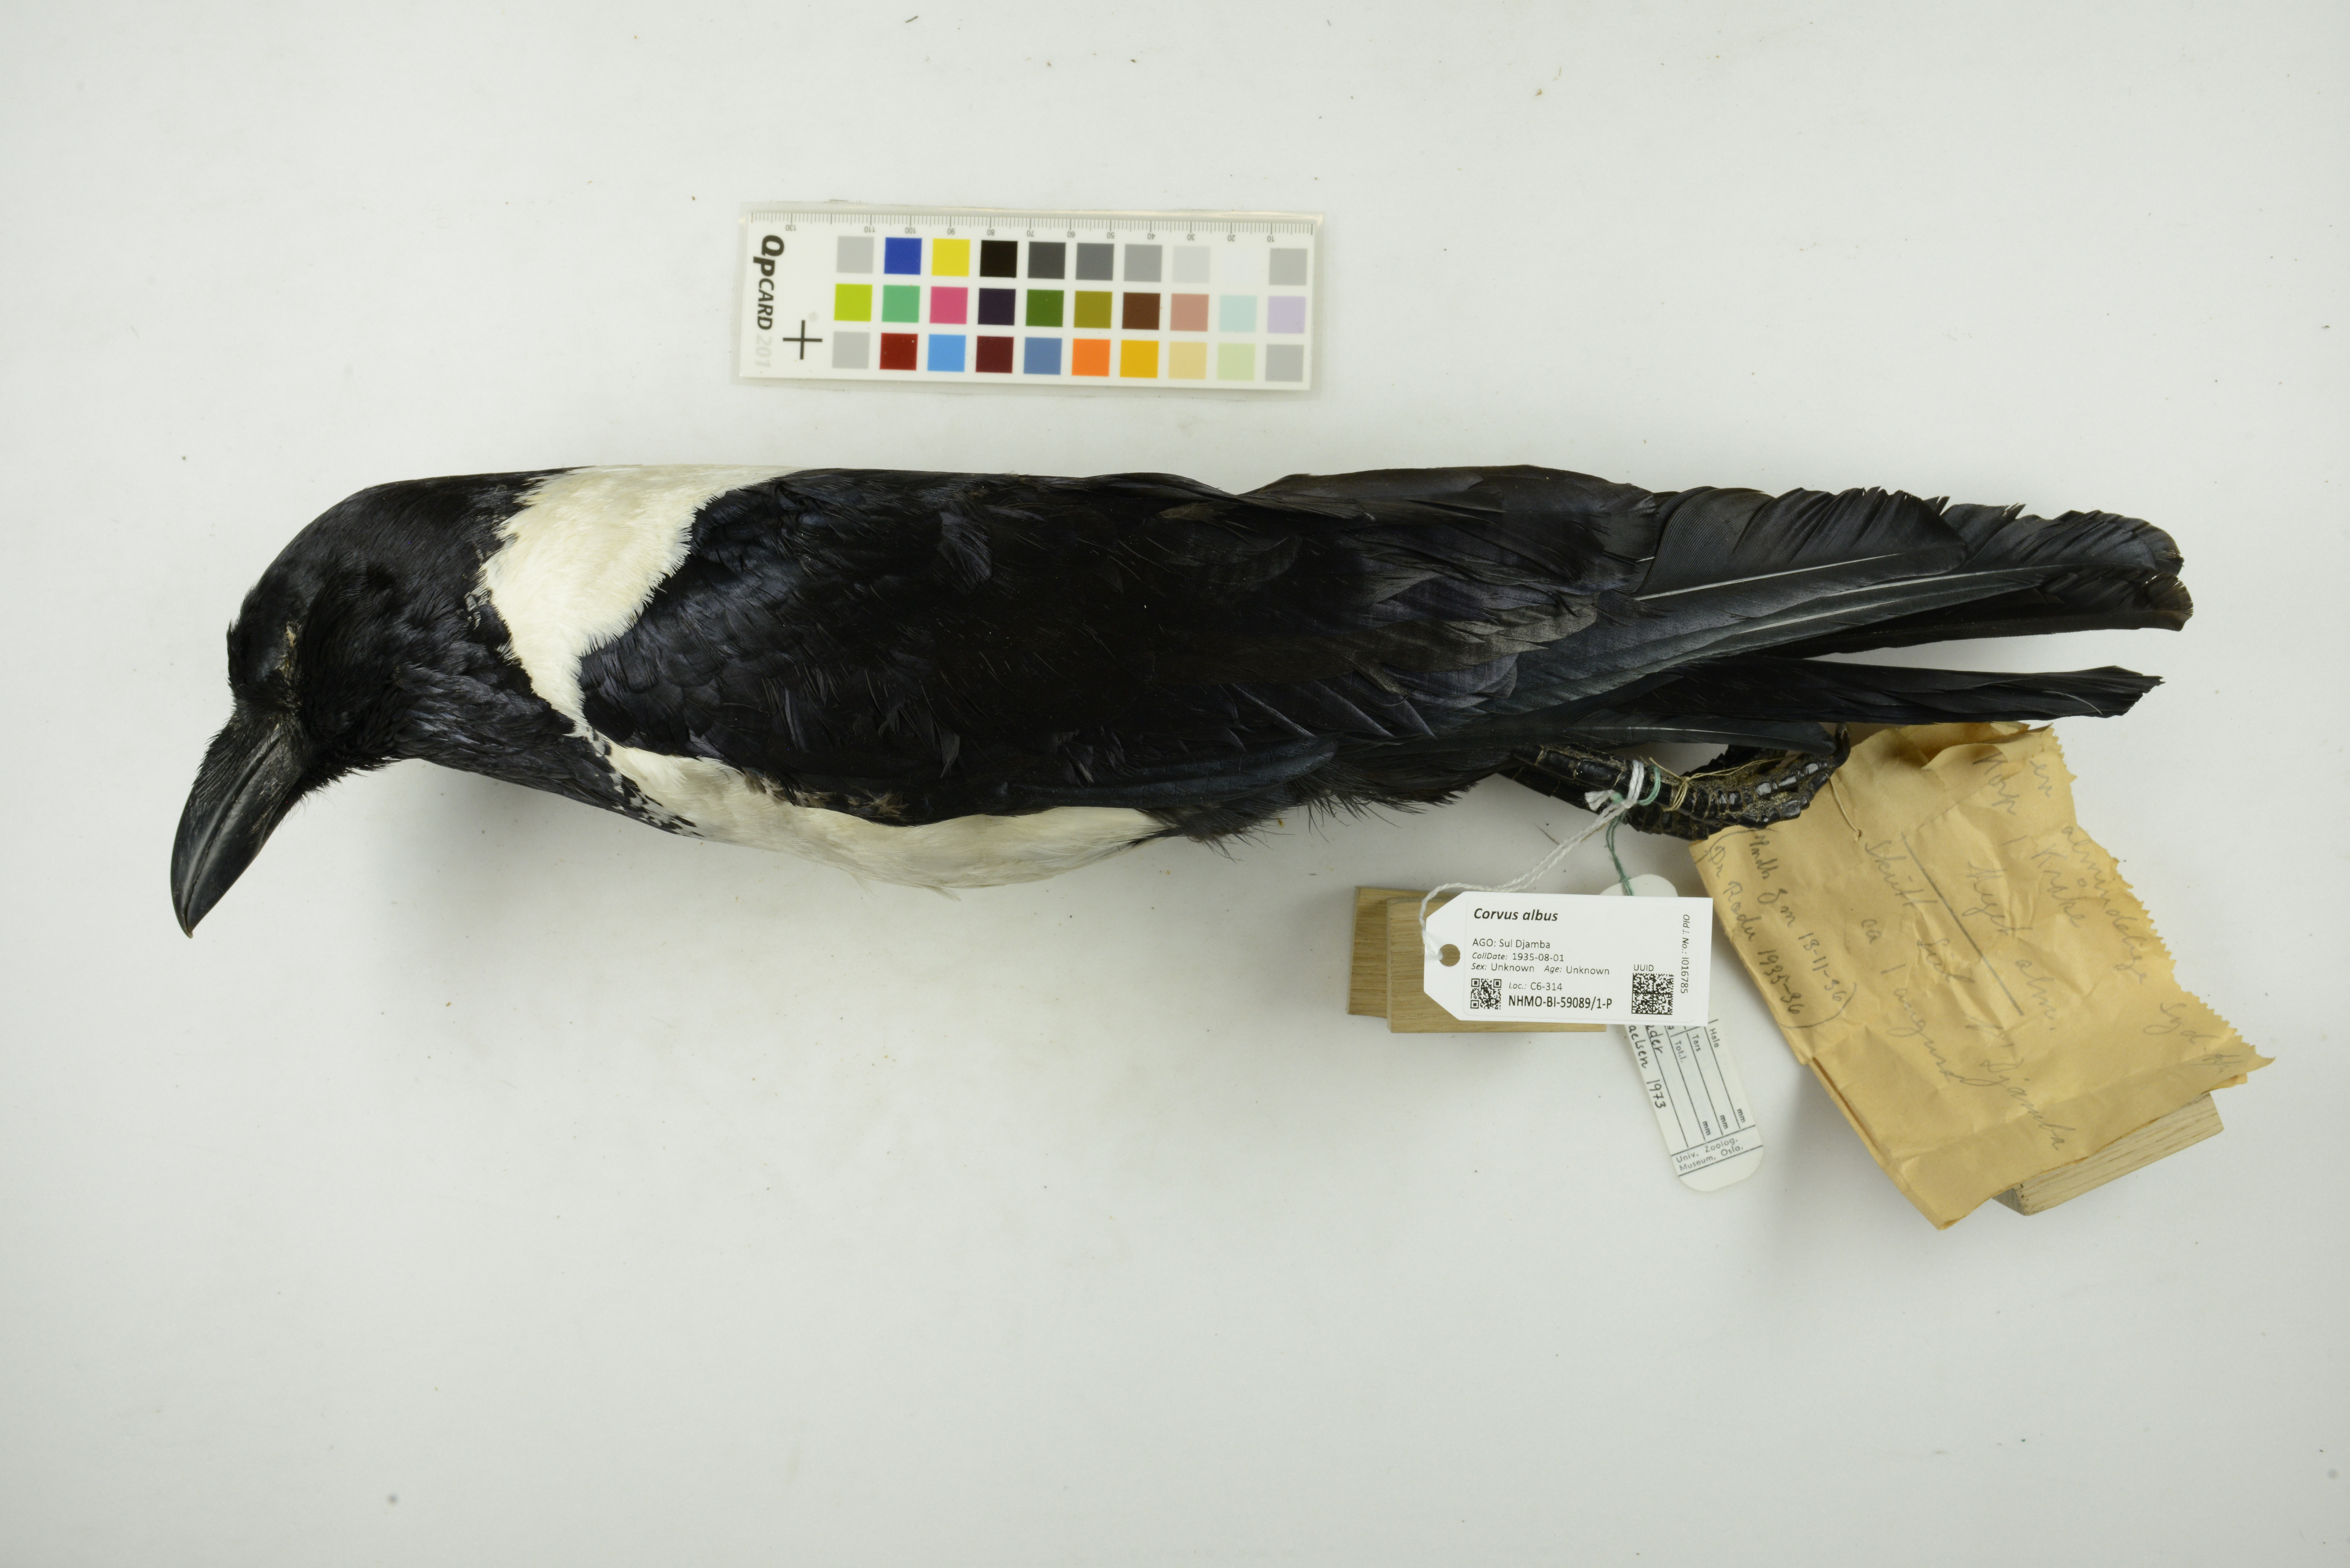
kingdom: Animalia
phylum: Chordata
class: Aves
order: Passeriformes
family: Corvidae
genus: Corvus
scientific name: Corvus albus
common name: Pied crow
